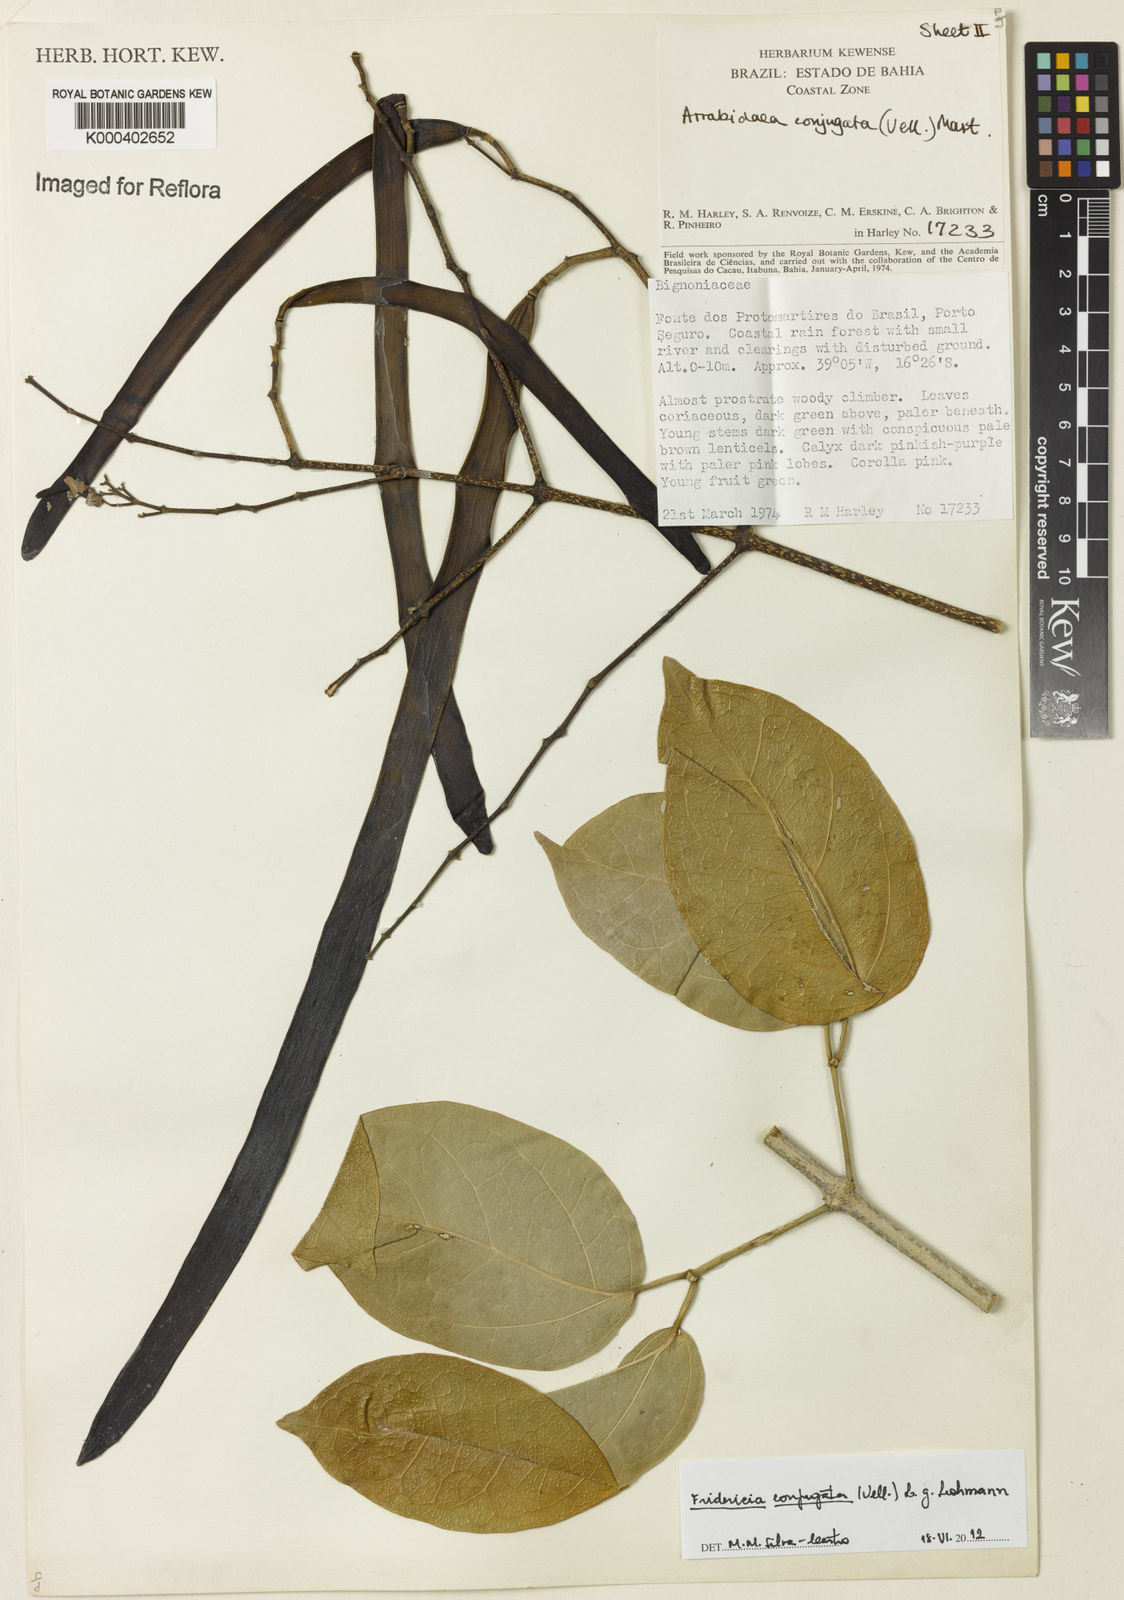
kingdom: Plantae
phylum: Tracheophyta
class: Magnoliopsida
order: Lamiales
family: Bignoniaceae
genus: Fridericia
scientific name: Fridericia conjugata
